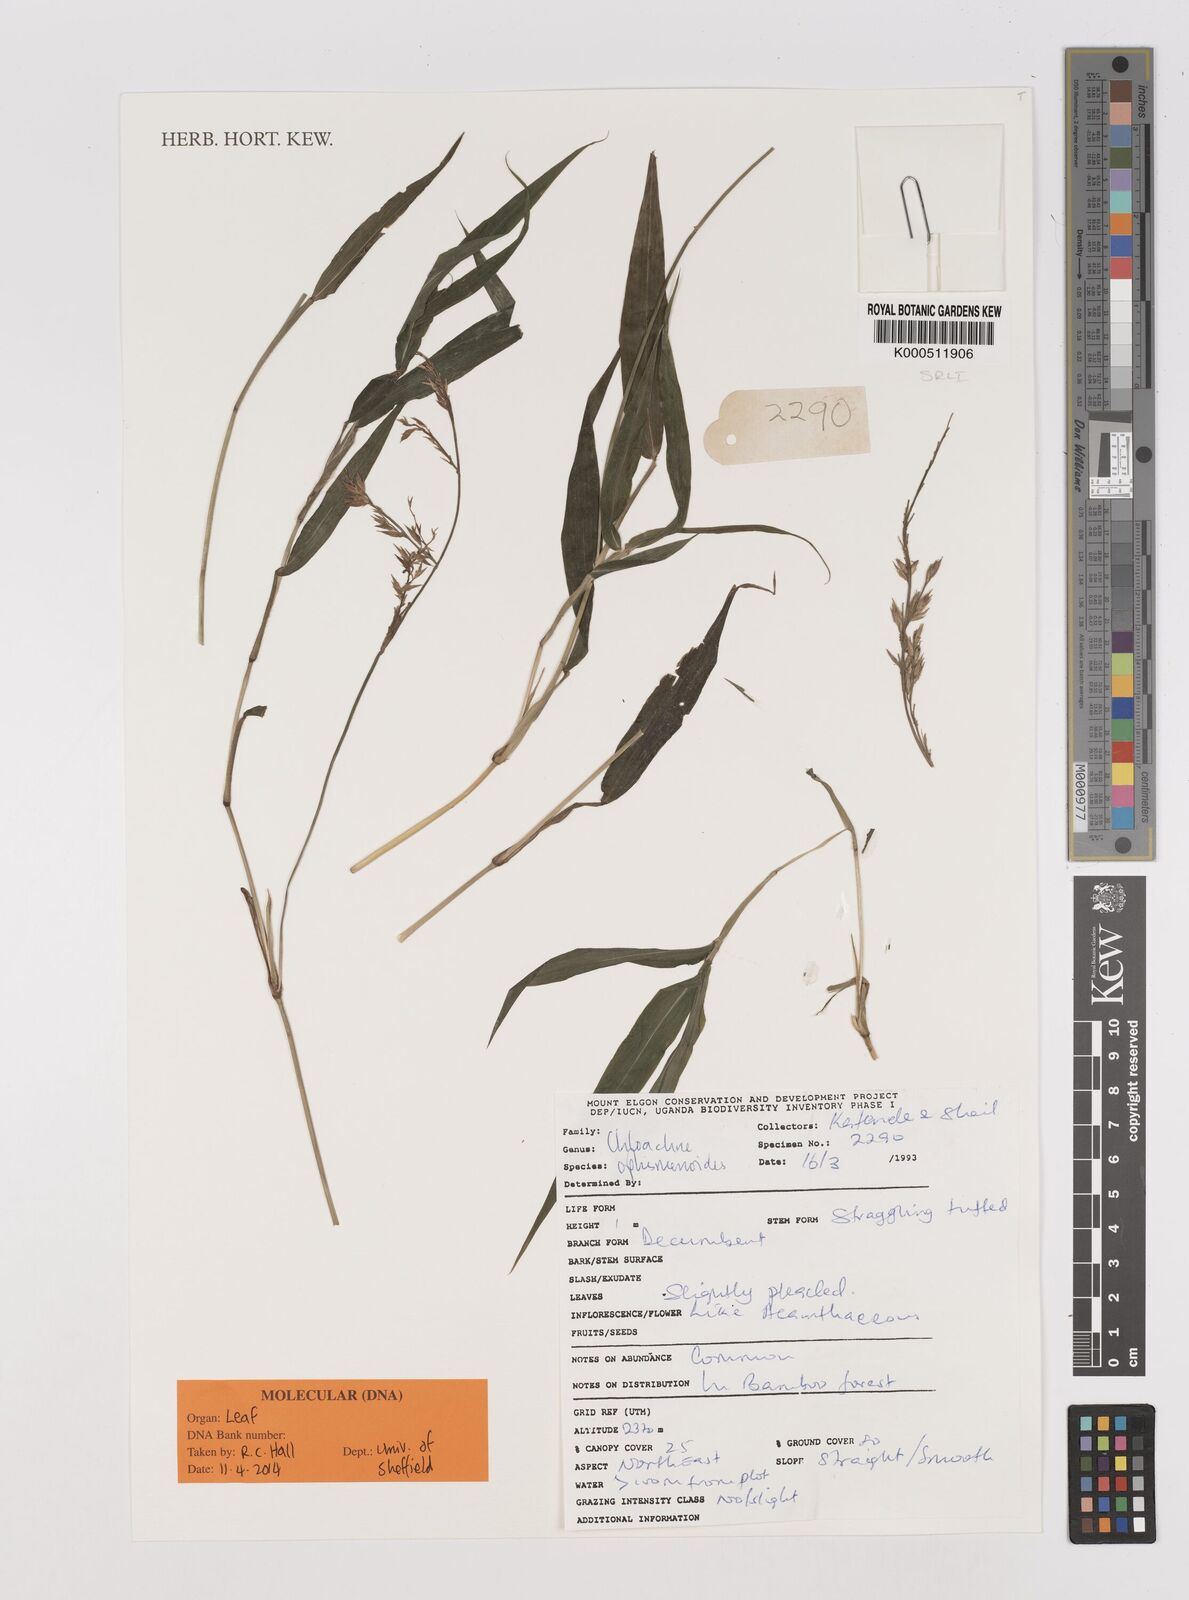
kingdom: Plantae
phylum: Tracheophyta
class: Liliopsida
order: Poales
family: Poaceae
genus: Poecilostachys
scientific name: Poecilostachys oplismenoides
